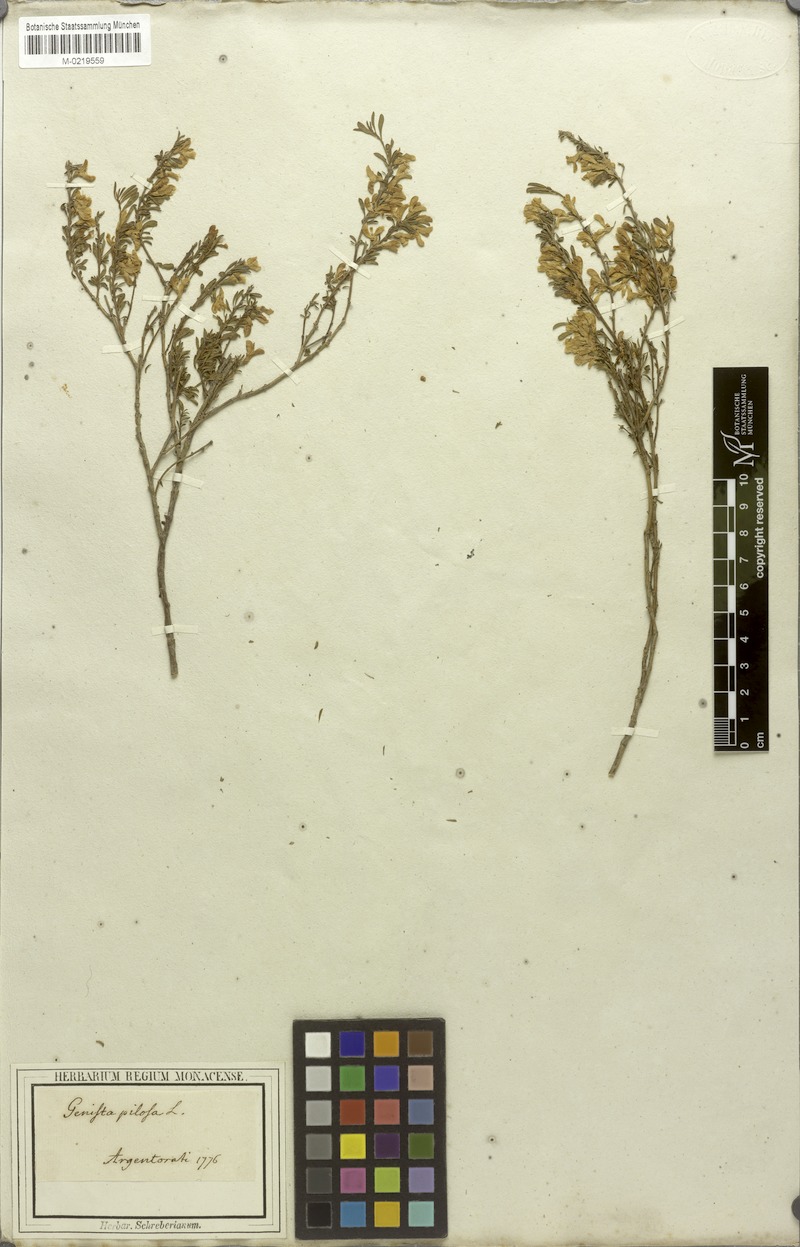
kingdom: Plantae
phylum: Tracheophyta
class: Magnoliopsida
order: Fabales
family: Fabaceae
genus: Genista
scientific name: Genista pilosa
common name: Hairy greenweed
